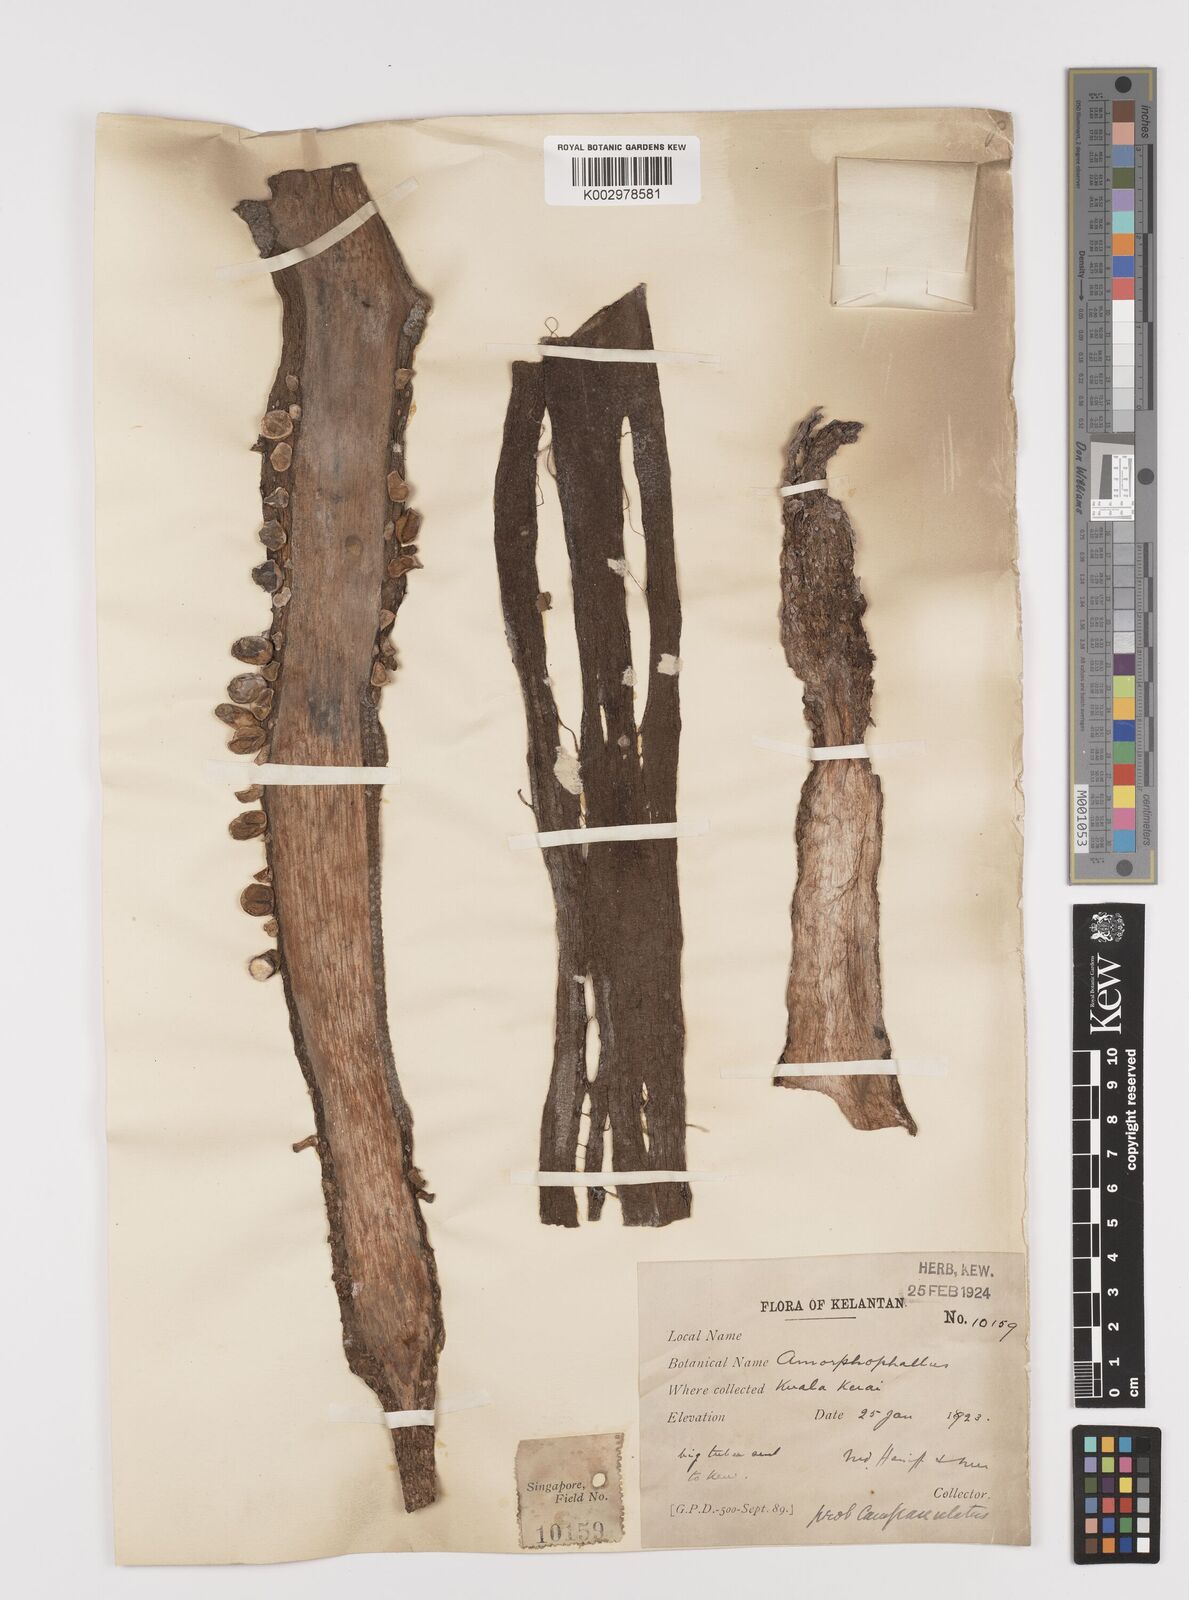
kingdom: Plantae
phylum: Tracheophyta
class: Liliopsida
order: Alismatales
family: Araceae
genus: Amorphophallus
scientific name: Amorphophallus paeoniifolius
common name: Telinga-potato
